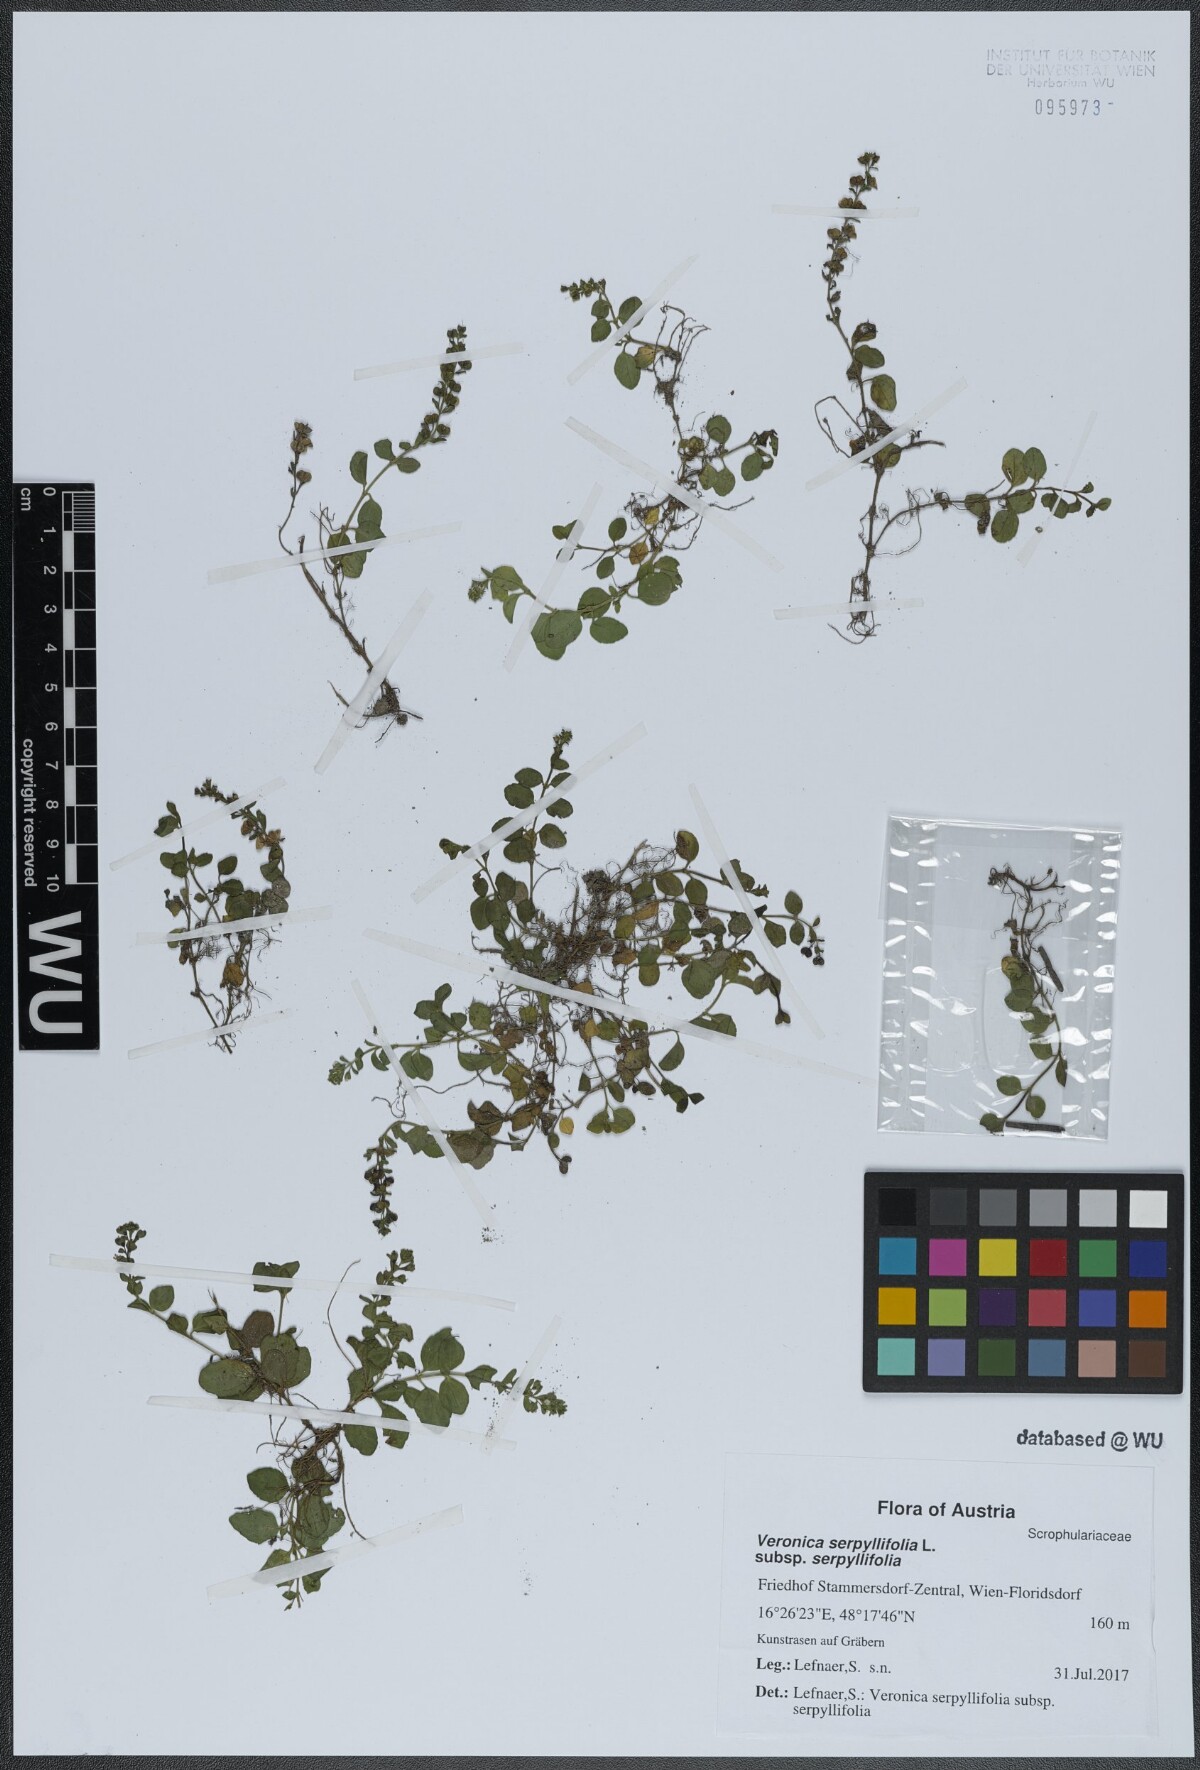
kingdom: Plantae
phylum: Tracheophyta
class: Magnoliopsida
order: Lamiales
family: Plantaginaceae
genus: Veronica
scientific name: Veronica serpyllifolia
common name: Thyme-leaved speedwell
